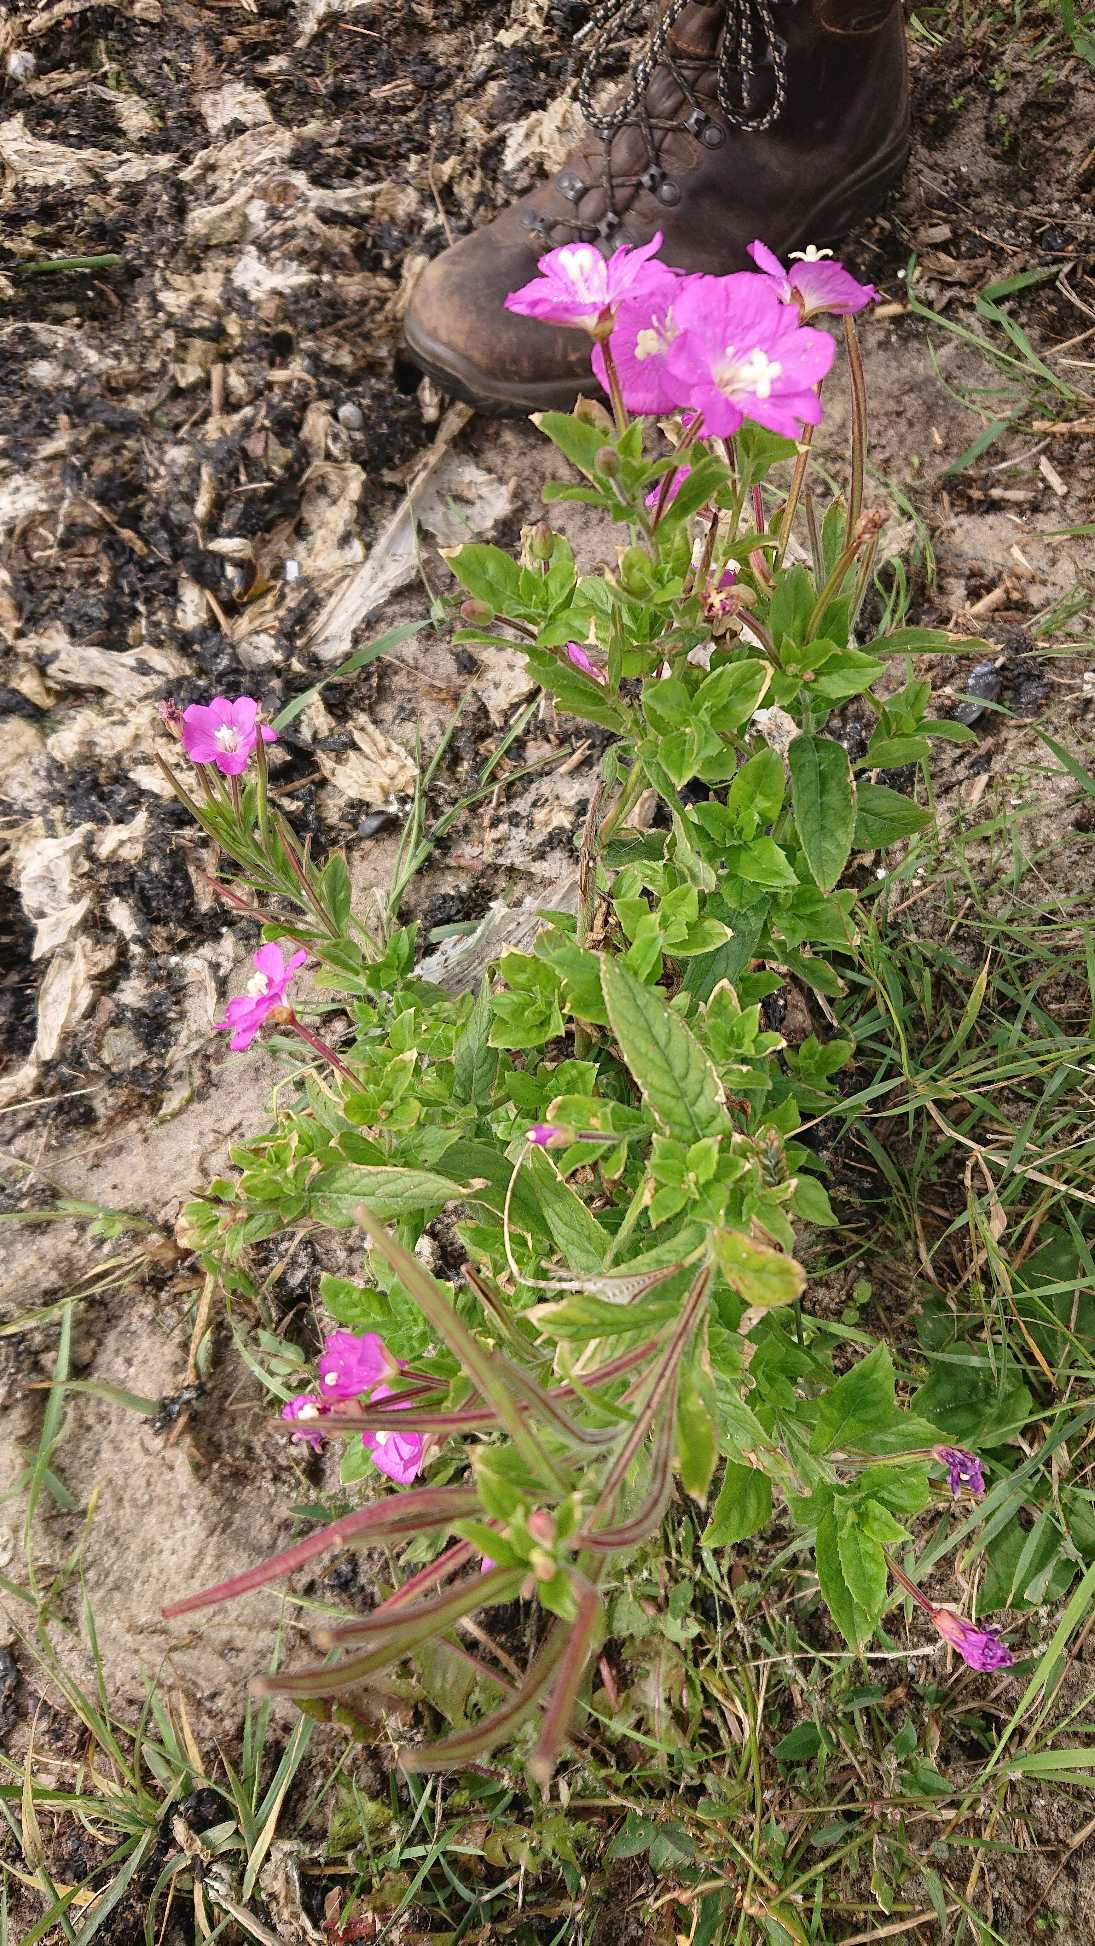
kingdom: Plantae
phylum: Tracheophyta
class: Magnoliopsida
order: Myrtales
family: Onagraceae
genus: Epilobium
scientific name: Epilobium hirsutum
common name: Lådden dueurt
